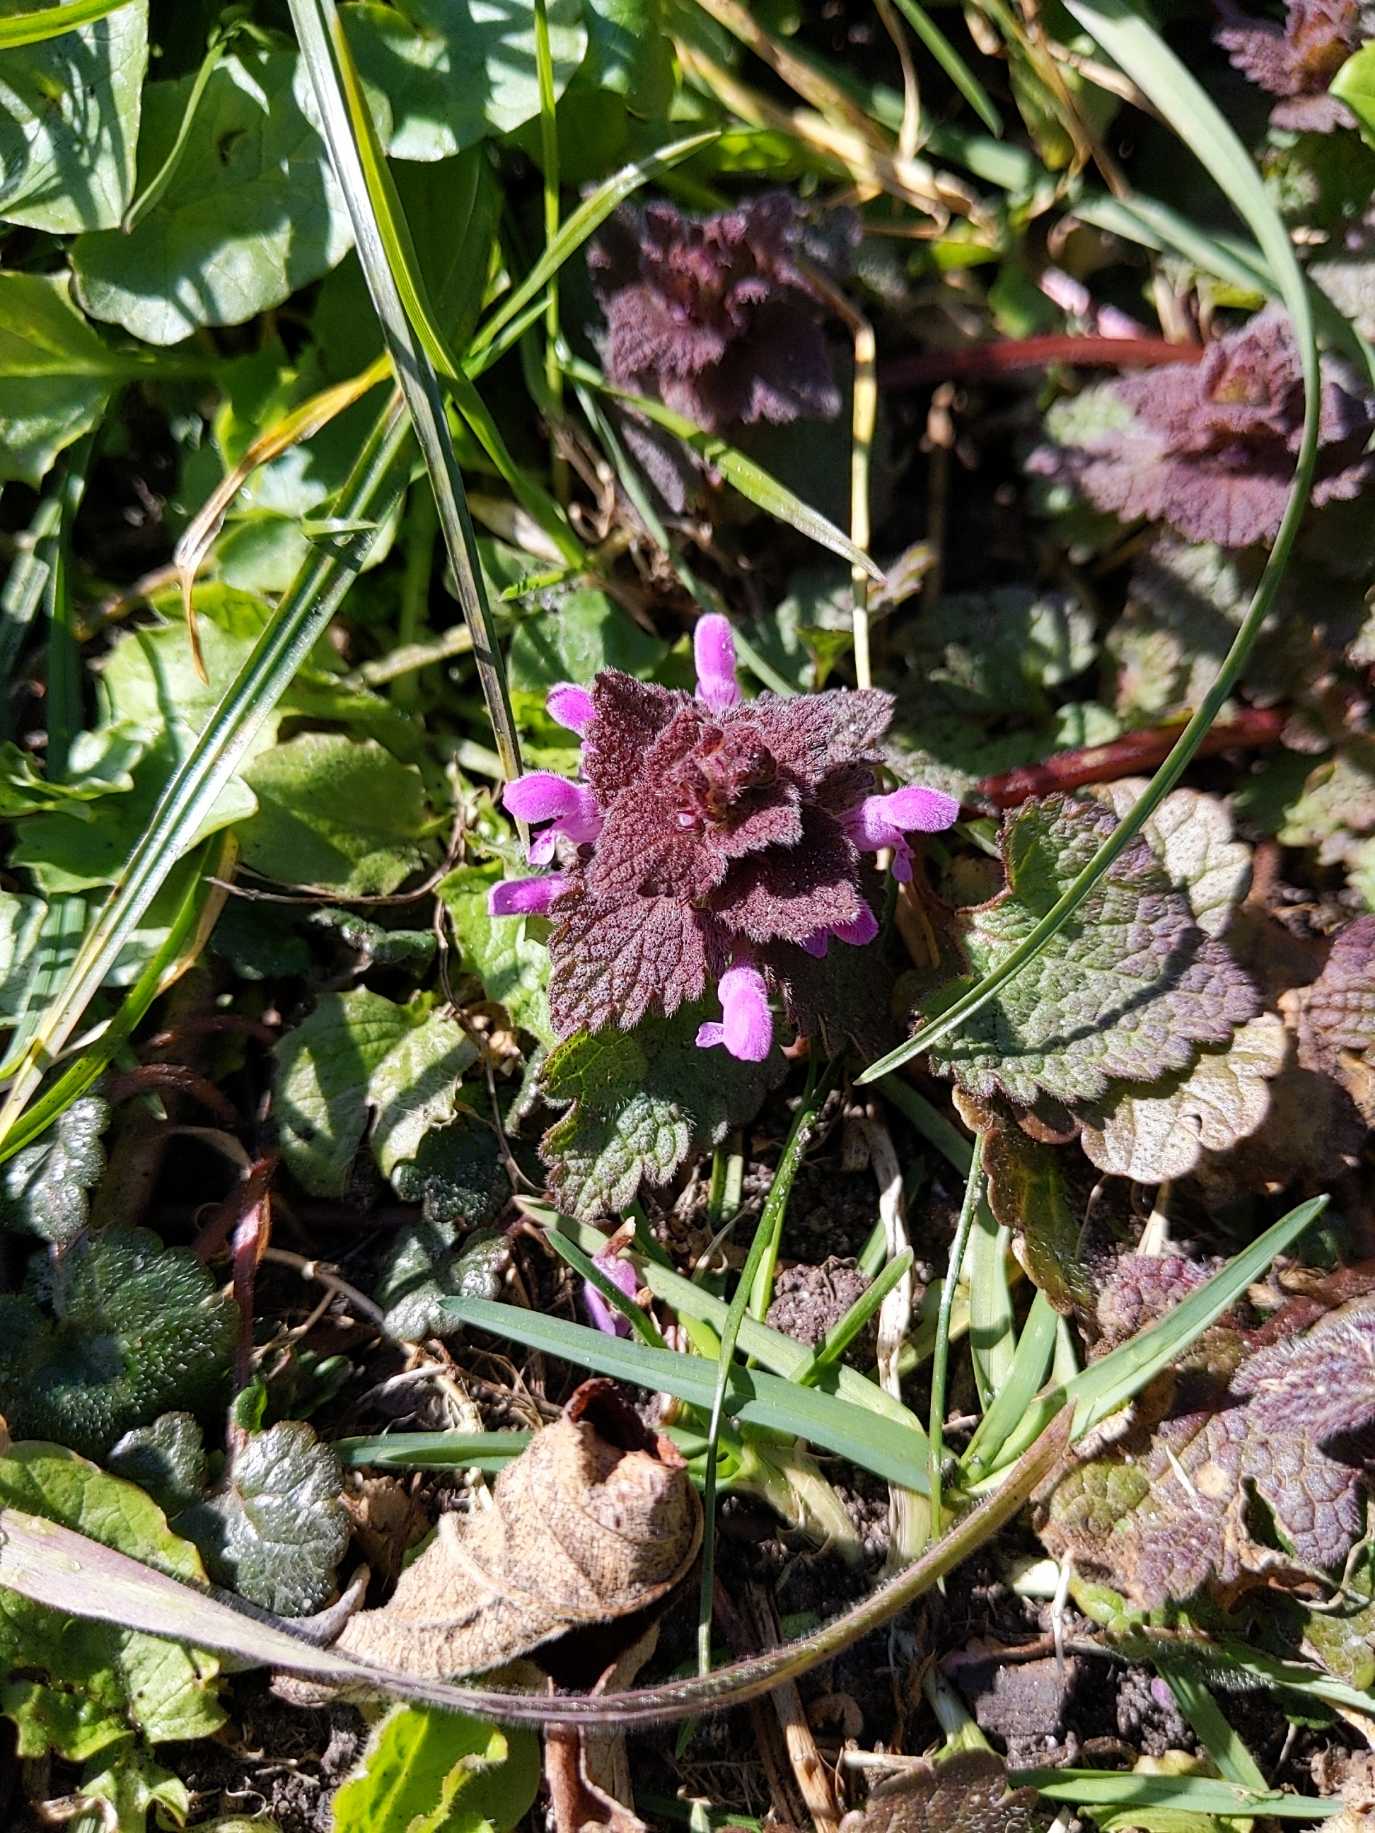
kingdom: Plantae
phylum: Tracheophyta
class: Magnoliopsida
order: Lamiales
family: Lamiaceae
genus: Lamium
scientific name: Lamium purpureum
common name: Rød tvetand
